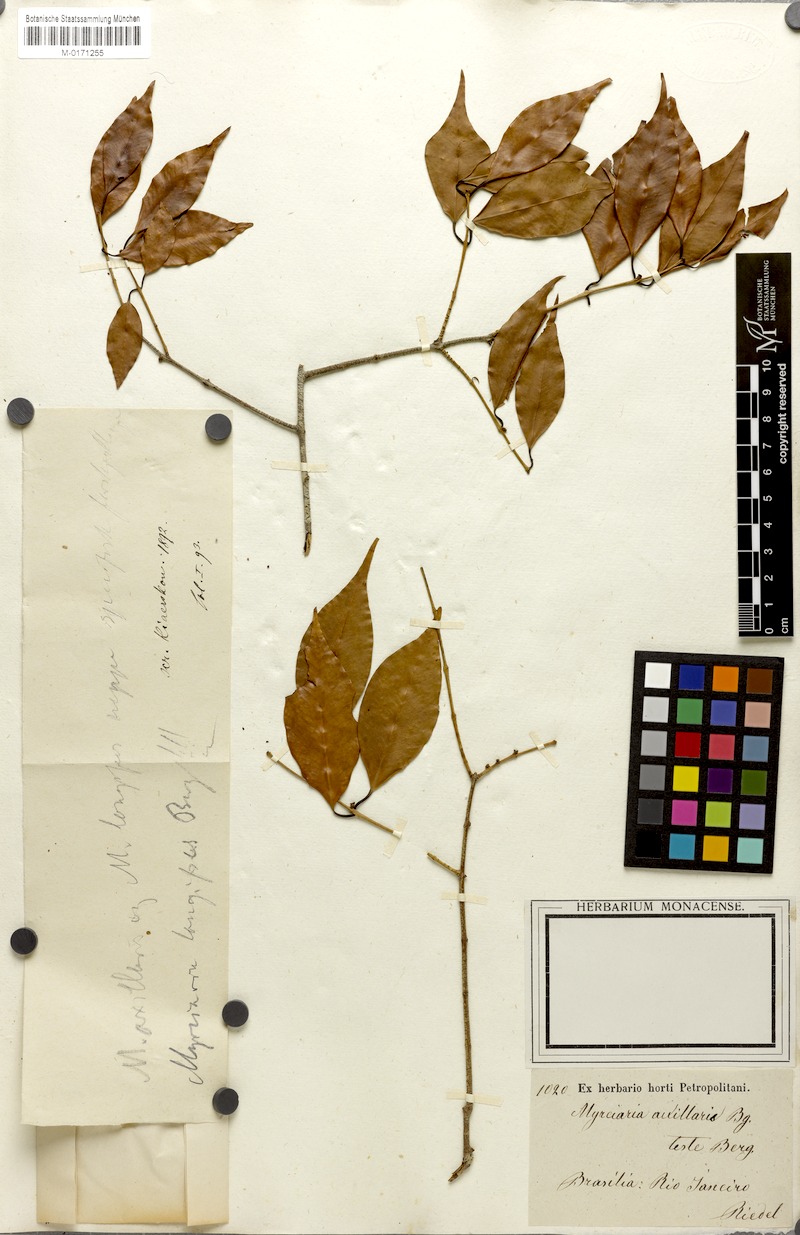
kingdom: Plantae
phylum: Tracheophyta
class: Magnoliopsida
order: Myrtales
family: Myrtaceae
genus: Myrciaria
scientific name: Myrciaria floribunda
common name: Guavaberry
